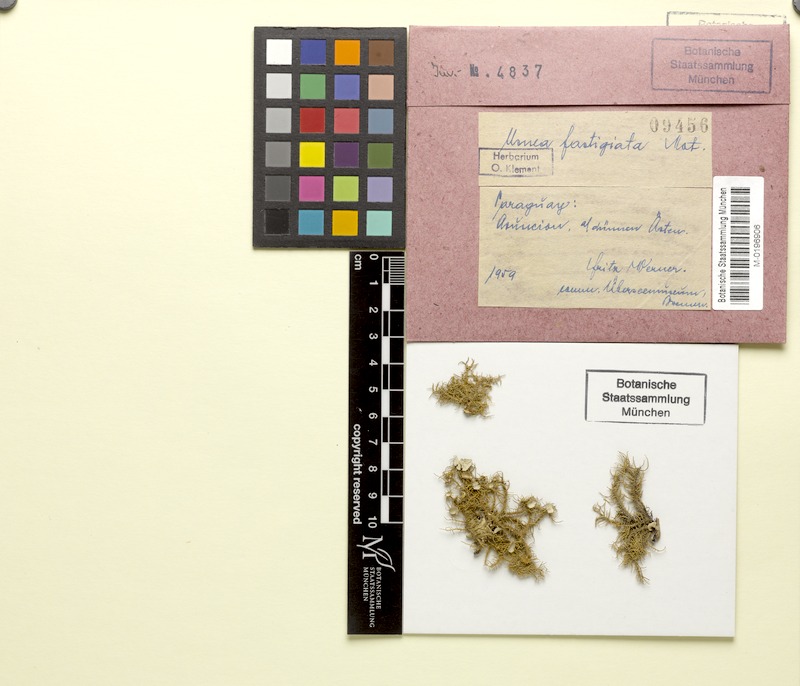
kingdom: Fungi
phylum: Ascomycota
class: Lecanoromycetes
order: Lecanorales
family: Parmeliaceae
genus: Usnea
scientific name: Usnea fastigiata
